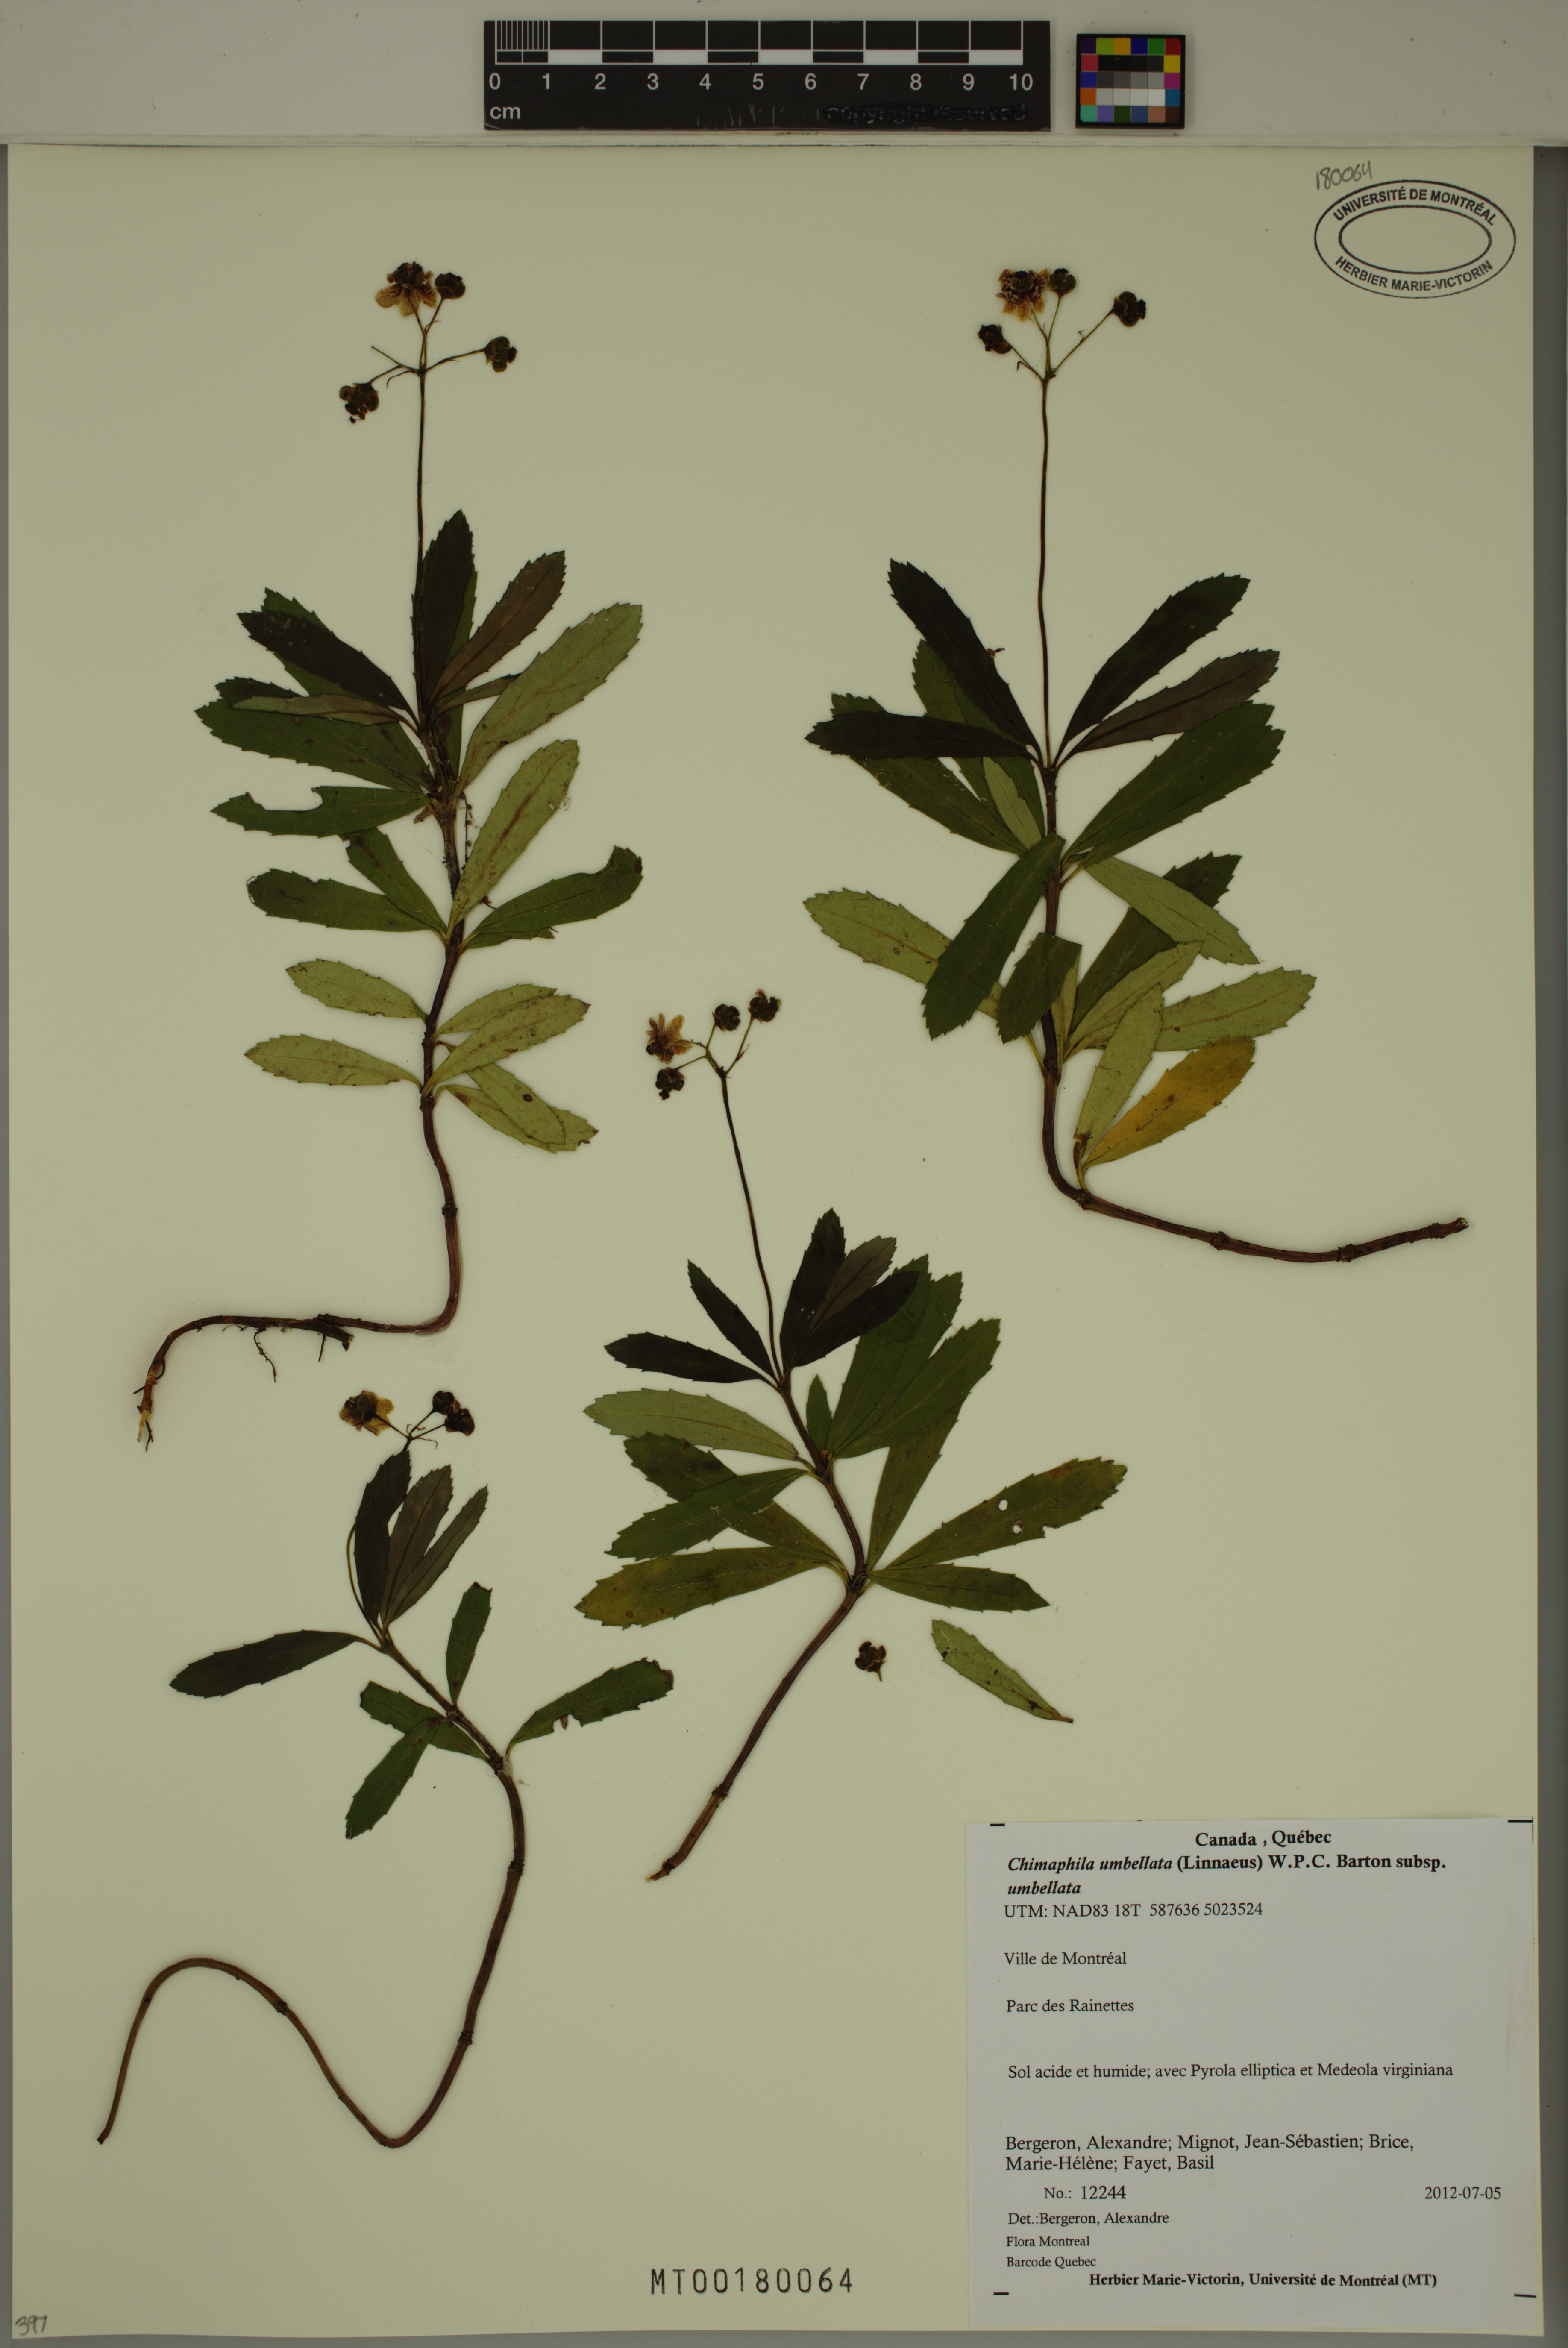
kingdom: Plantae
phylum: Tracheophyta
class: Magnoliopsida
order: Ericales
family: Ericaceae
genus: Chimaphila
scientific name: Chimaphila umbellata
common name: Pipsissewa
